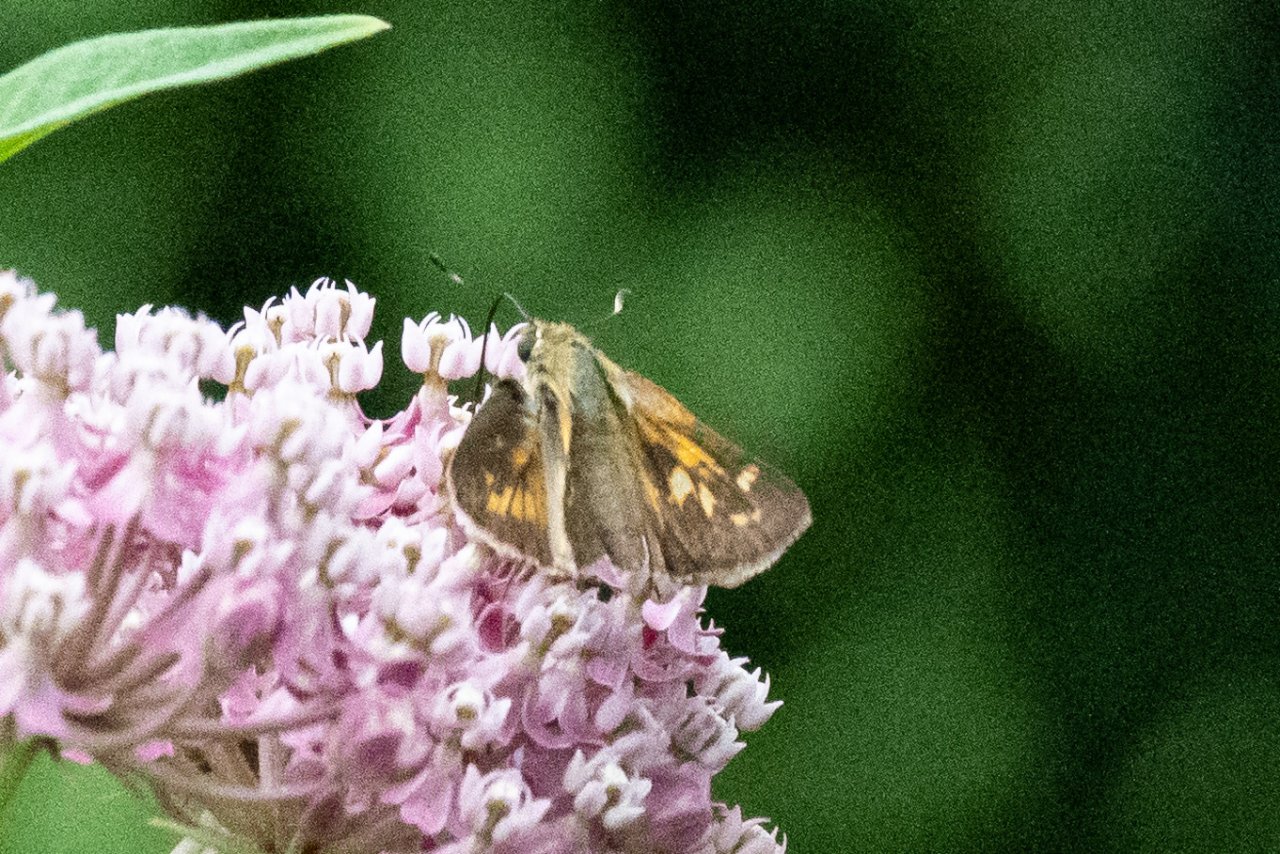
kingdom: Animalia
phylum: Arthropoda
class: Insecta
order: Lepidoptera
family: Hesperiidae
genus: Atalopedes
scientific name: Atalopedes campestris
